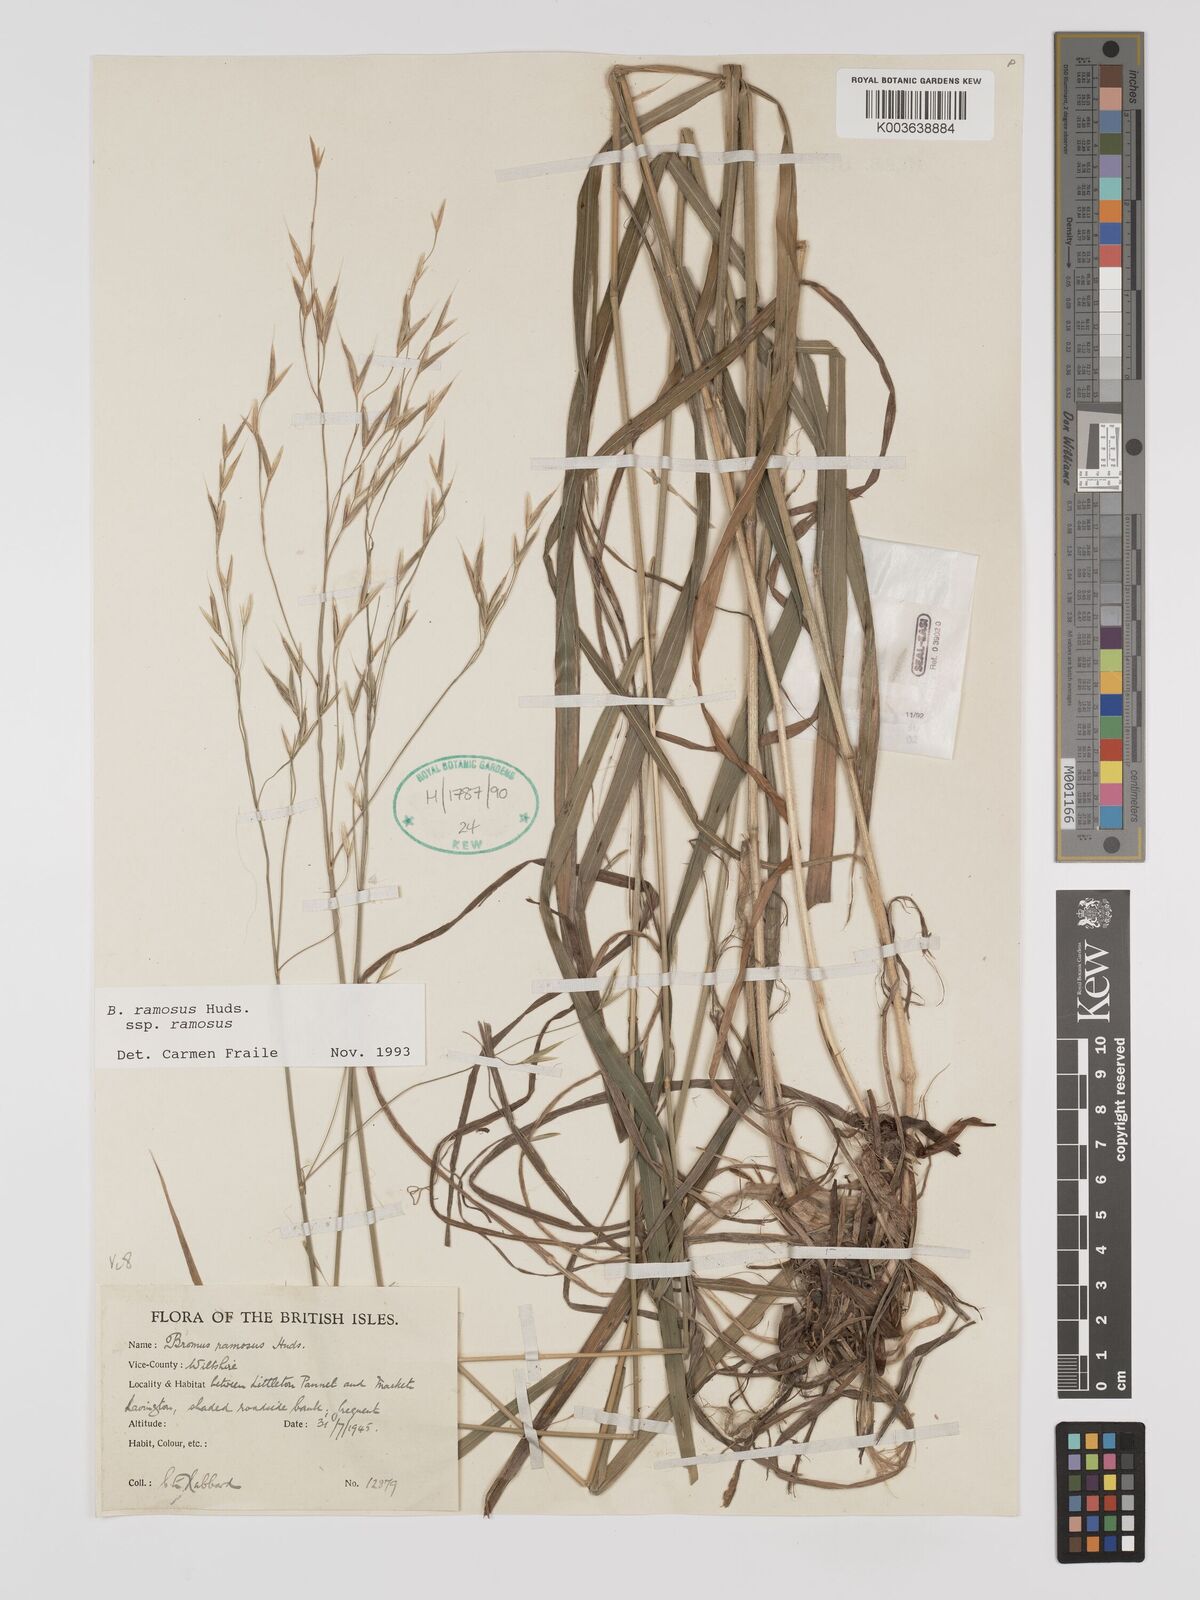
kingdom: Plantae
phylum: Tracheophyta
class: Liliopsida
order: Poales
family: Poaceae
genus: Brachypodium
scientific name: Brachypodium retusum
